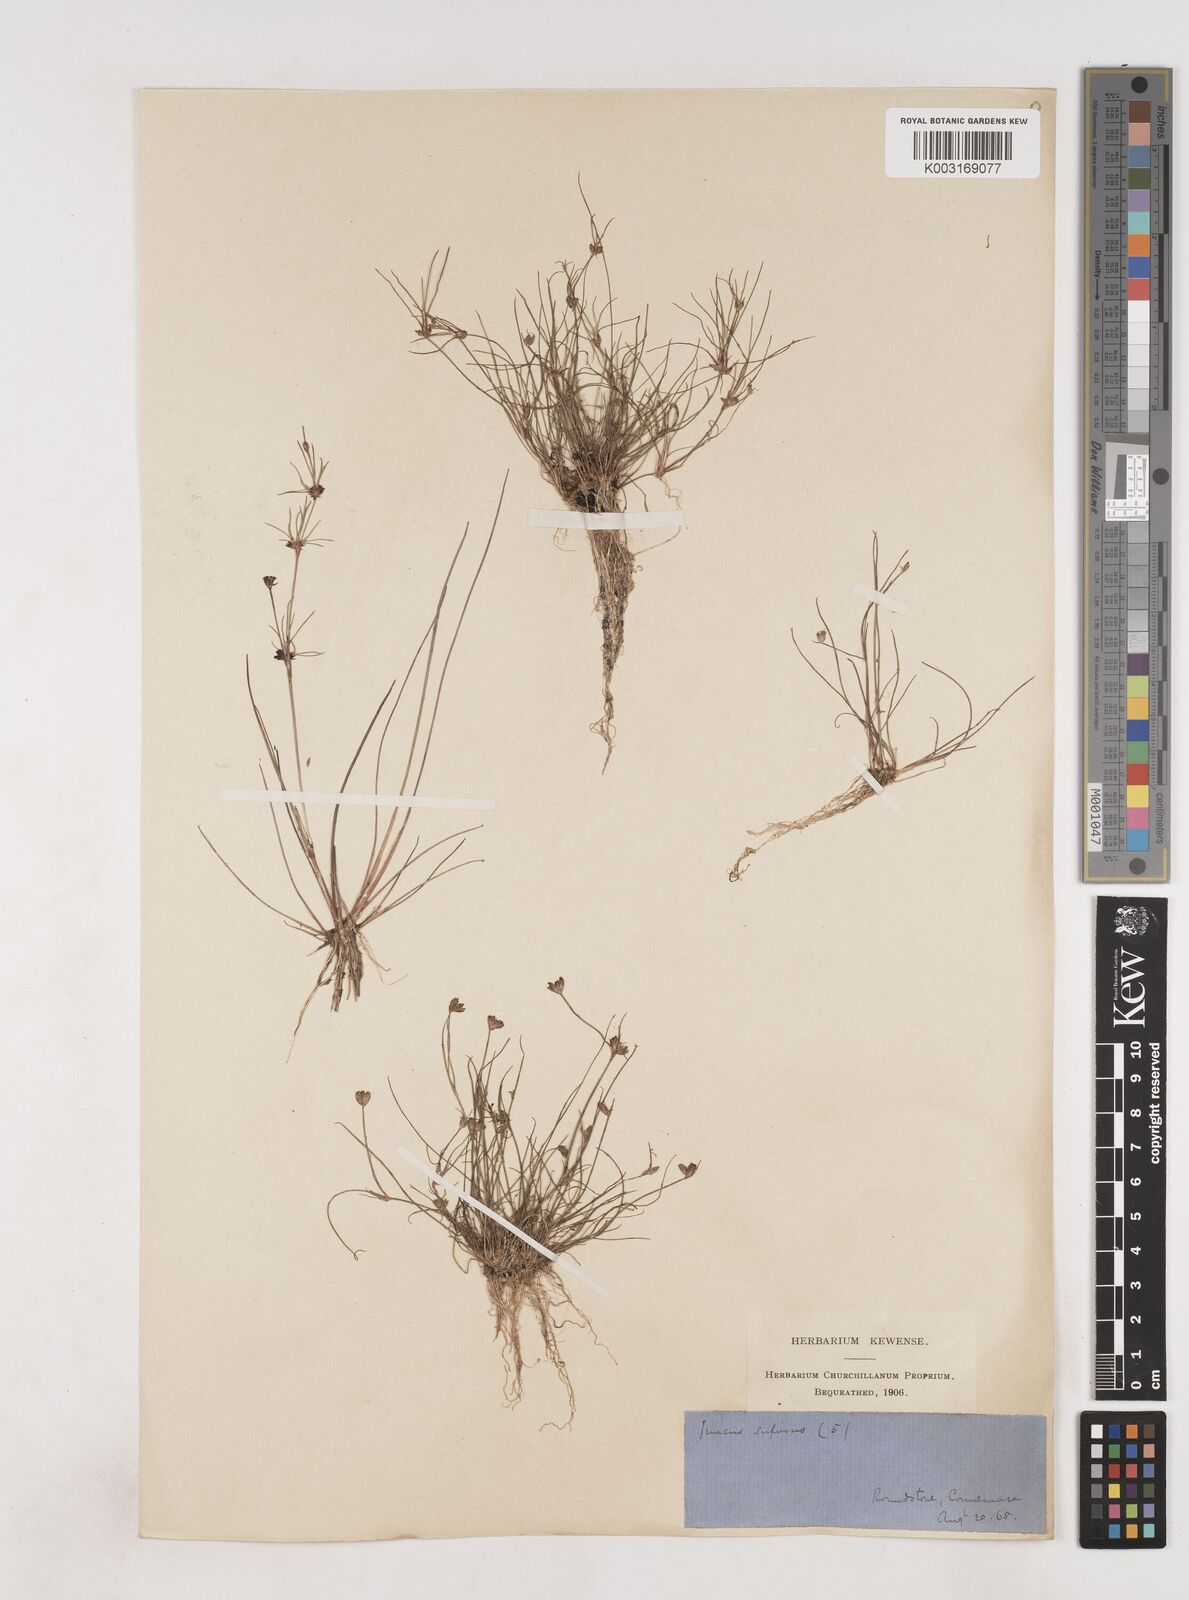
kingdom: Plantae
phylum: Tracheophyta
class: Liliopsida
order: Poales
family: Juncaceae
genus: Juncus
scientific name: Juncus bulbosus
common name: Bulbous rush
